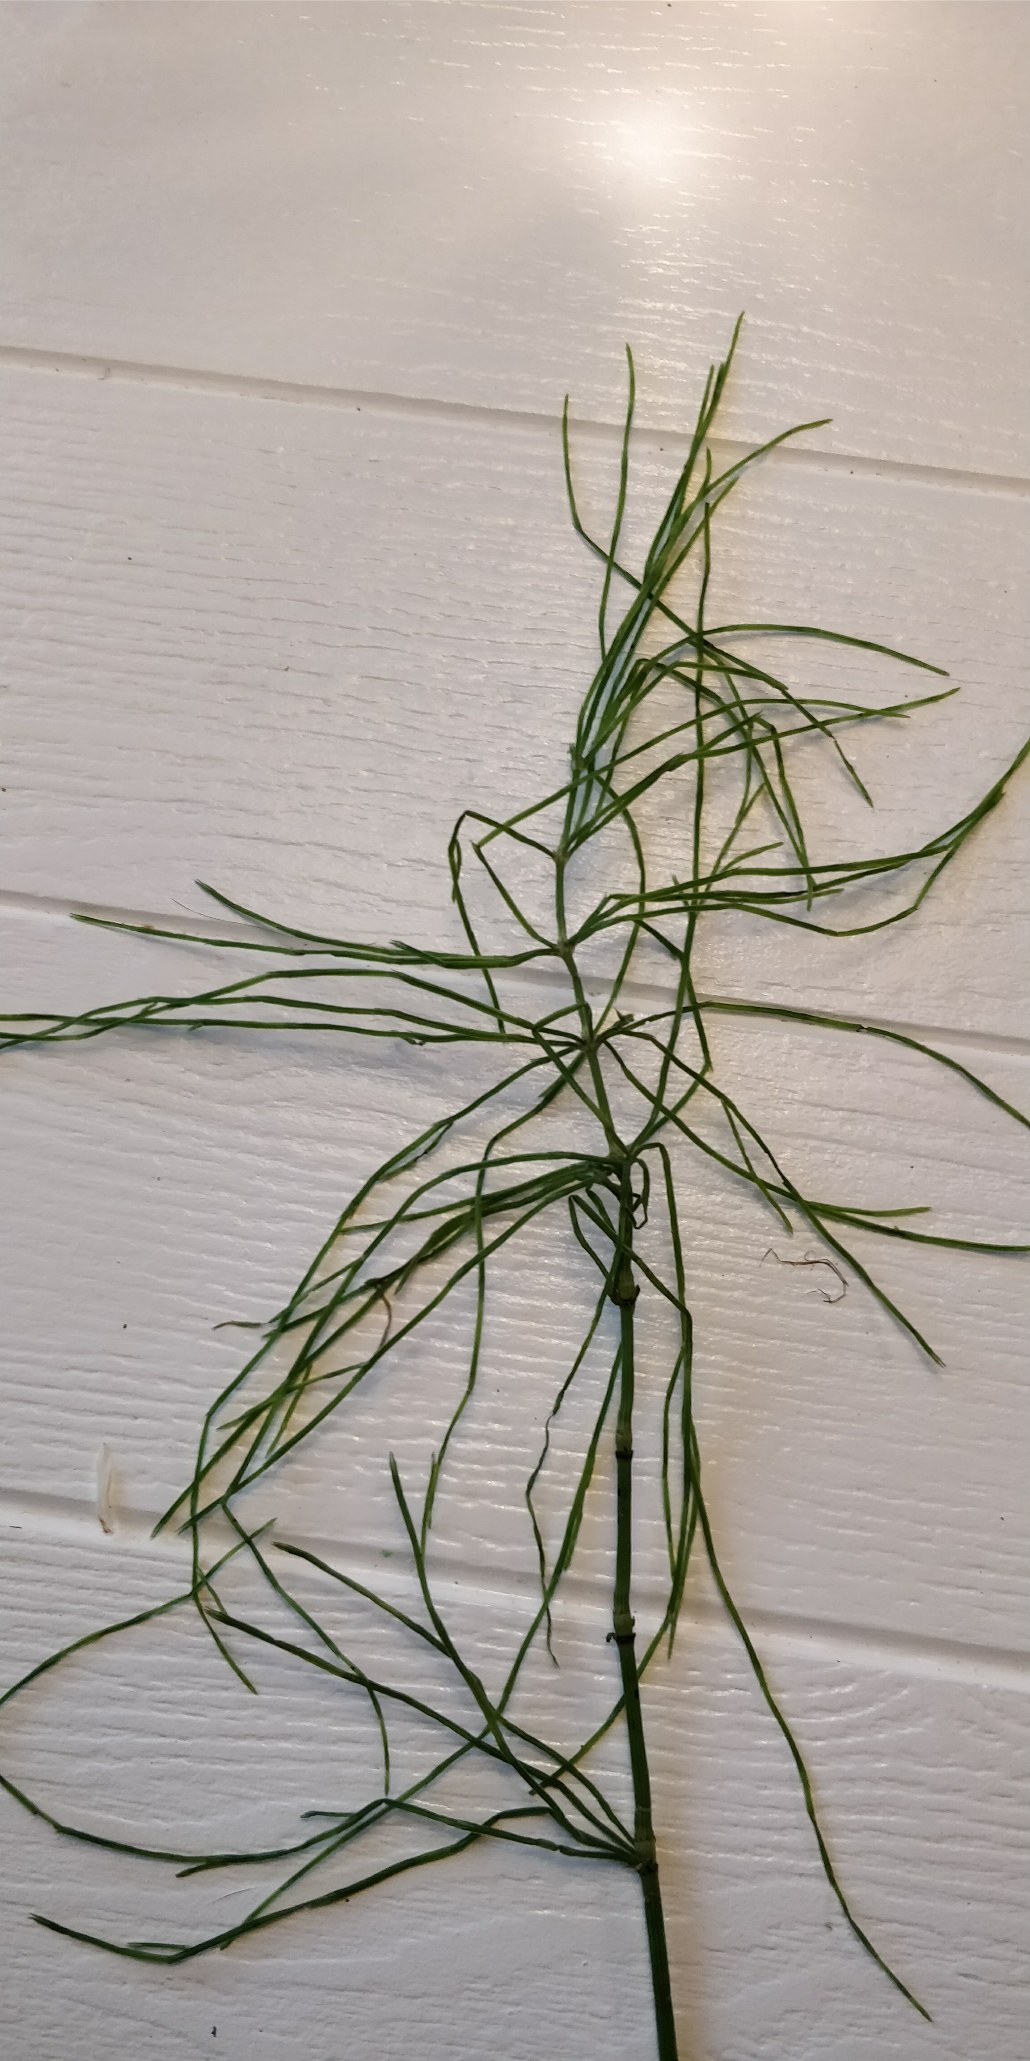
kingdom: Plantae
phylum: Tracheophyta
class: Polypodiopsida
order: Equisetales
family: Equisetaceae
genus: Equisetum
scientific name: Equisetum arvense
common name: Ager-padderok
